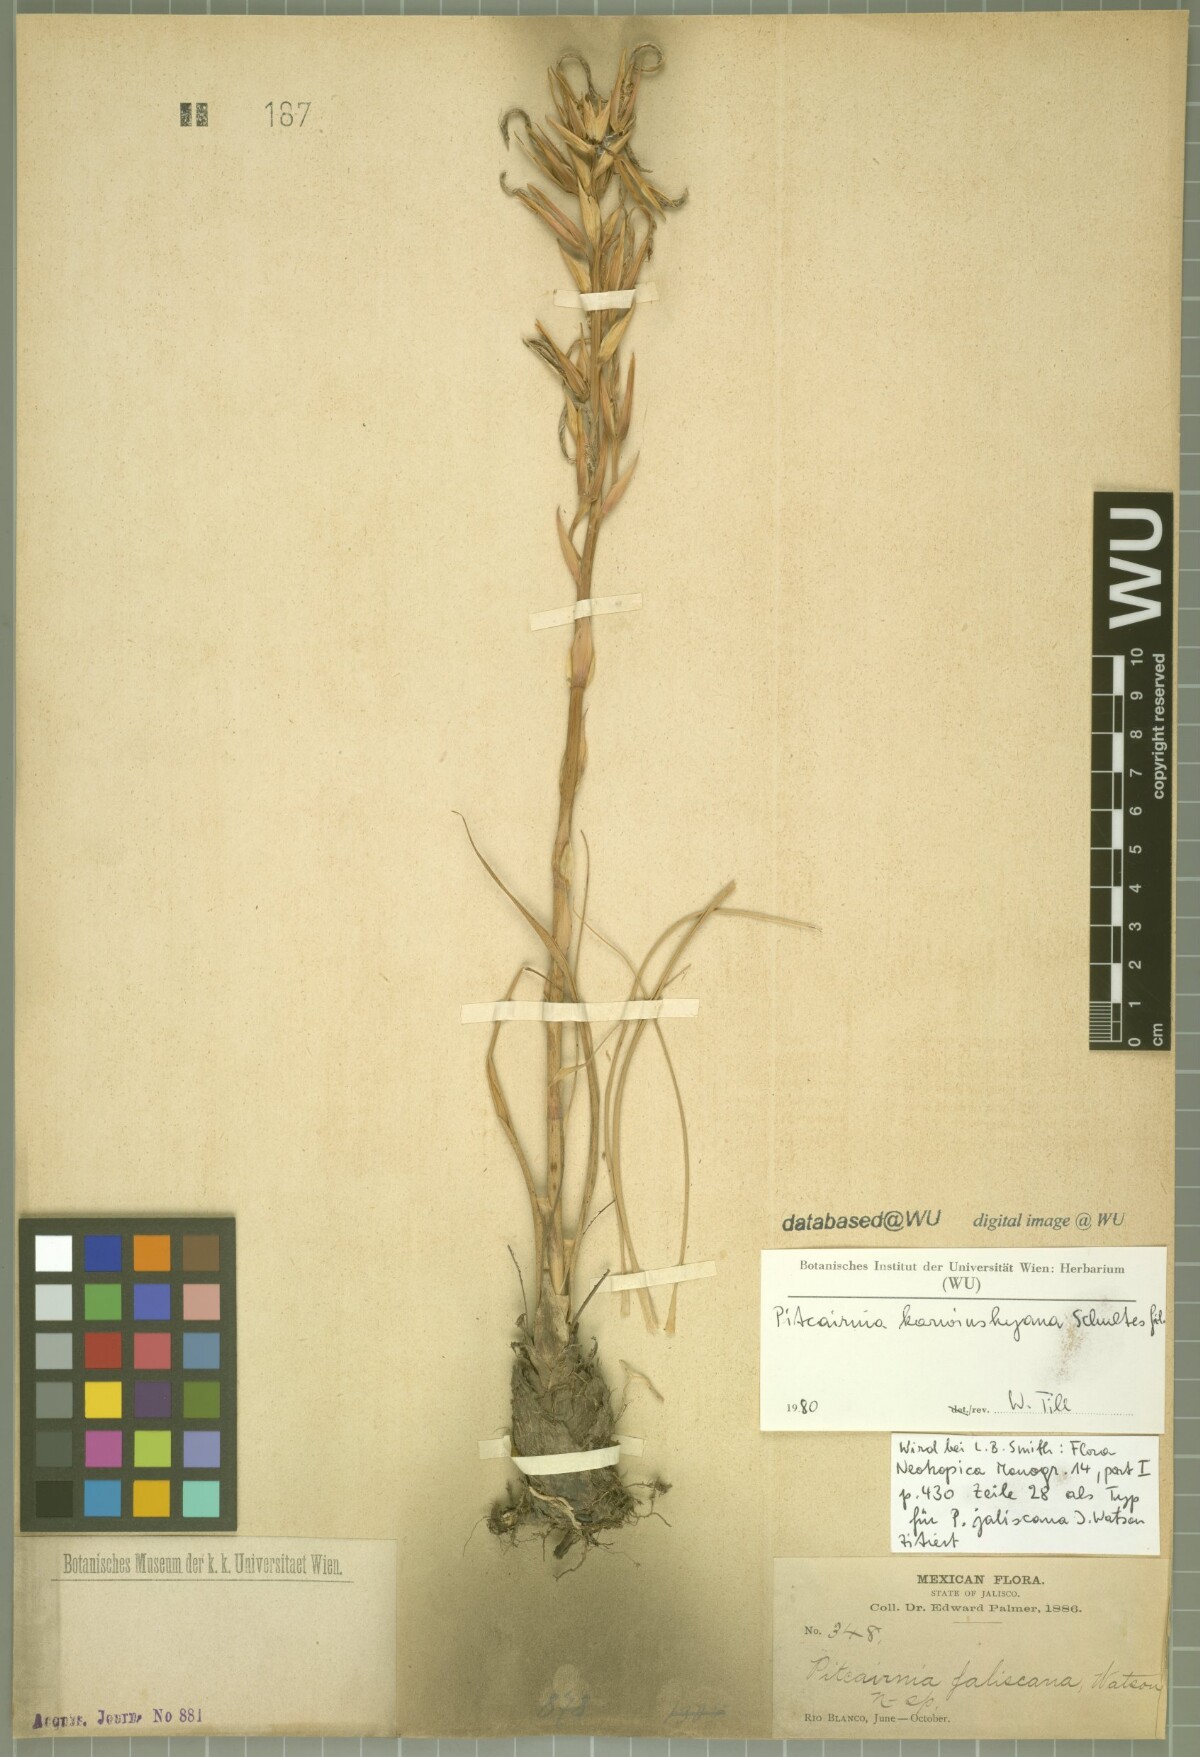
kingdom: Plantae
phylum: Tracheophyta
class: Liliopsida
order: Poales
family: Bromeliaceae
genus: Pitcairnia
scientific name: Pitcairnia karwinskyana
